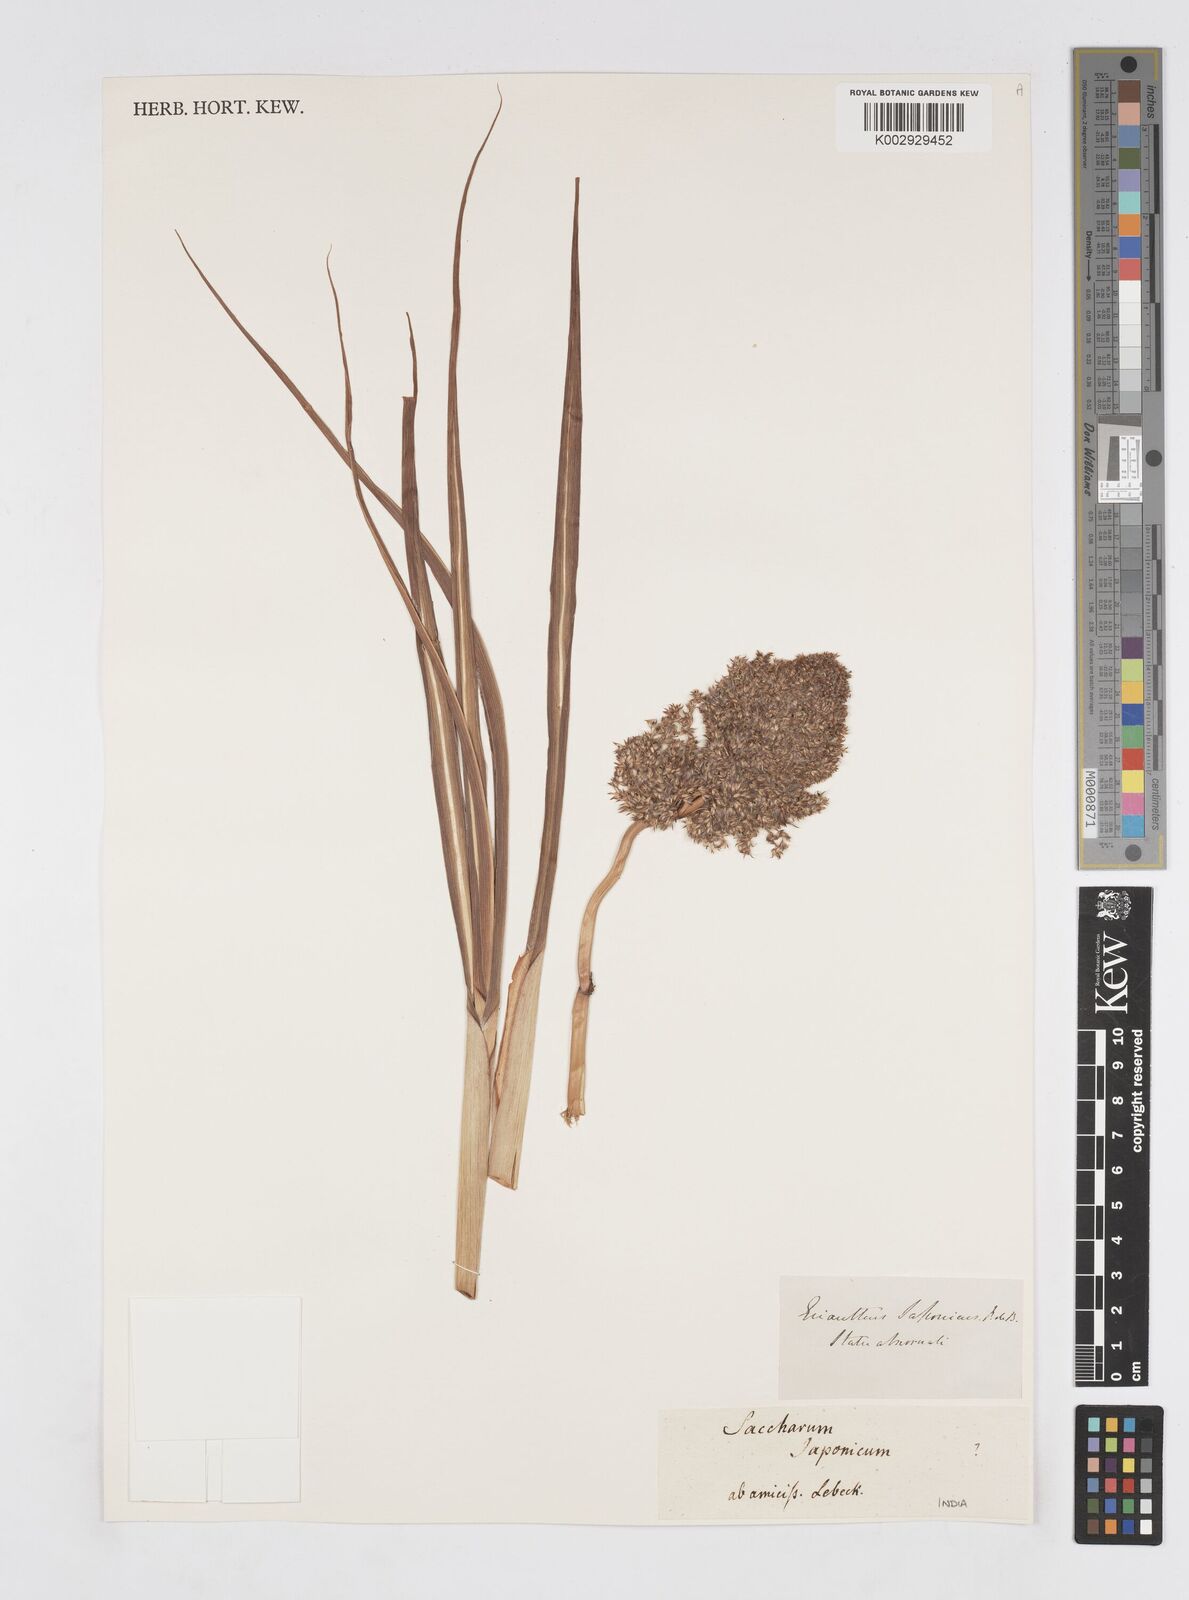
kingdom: Plantae
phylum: Tracheophyta
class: Liliopsida
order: Poales
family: Poaceae
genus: Saccharum
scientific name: Saccharum
